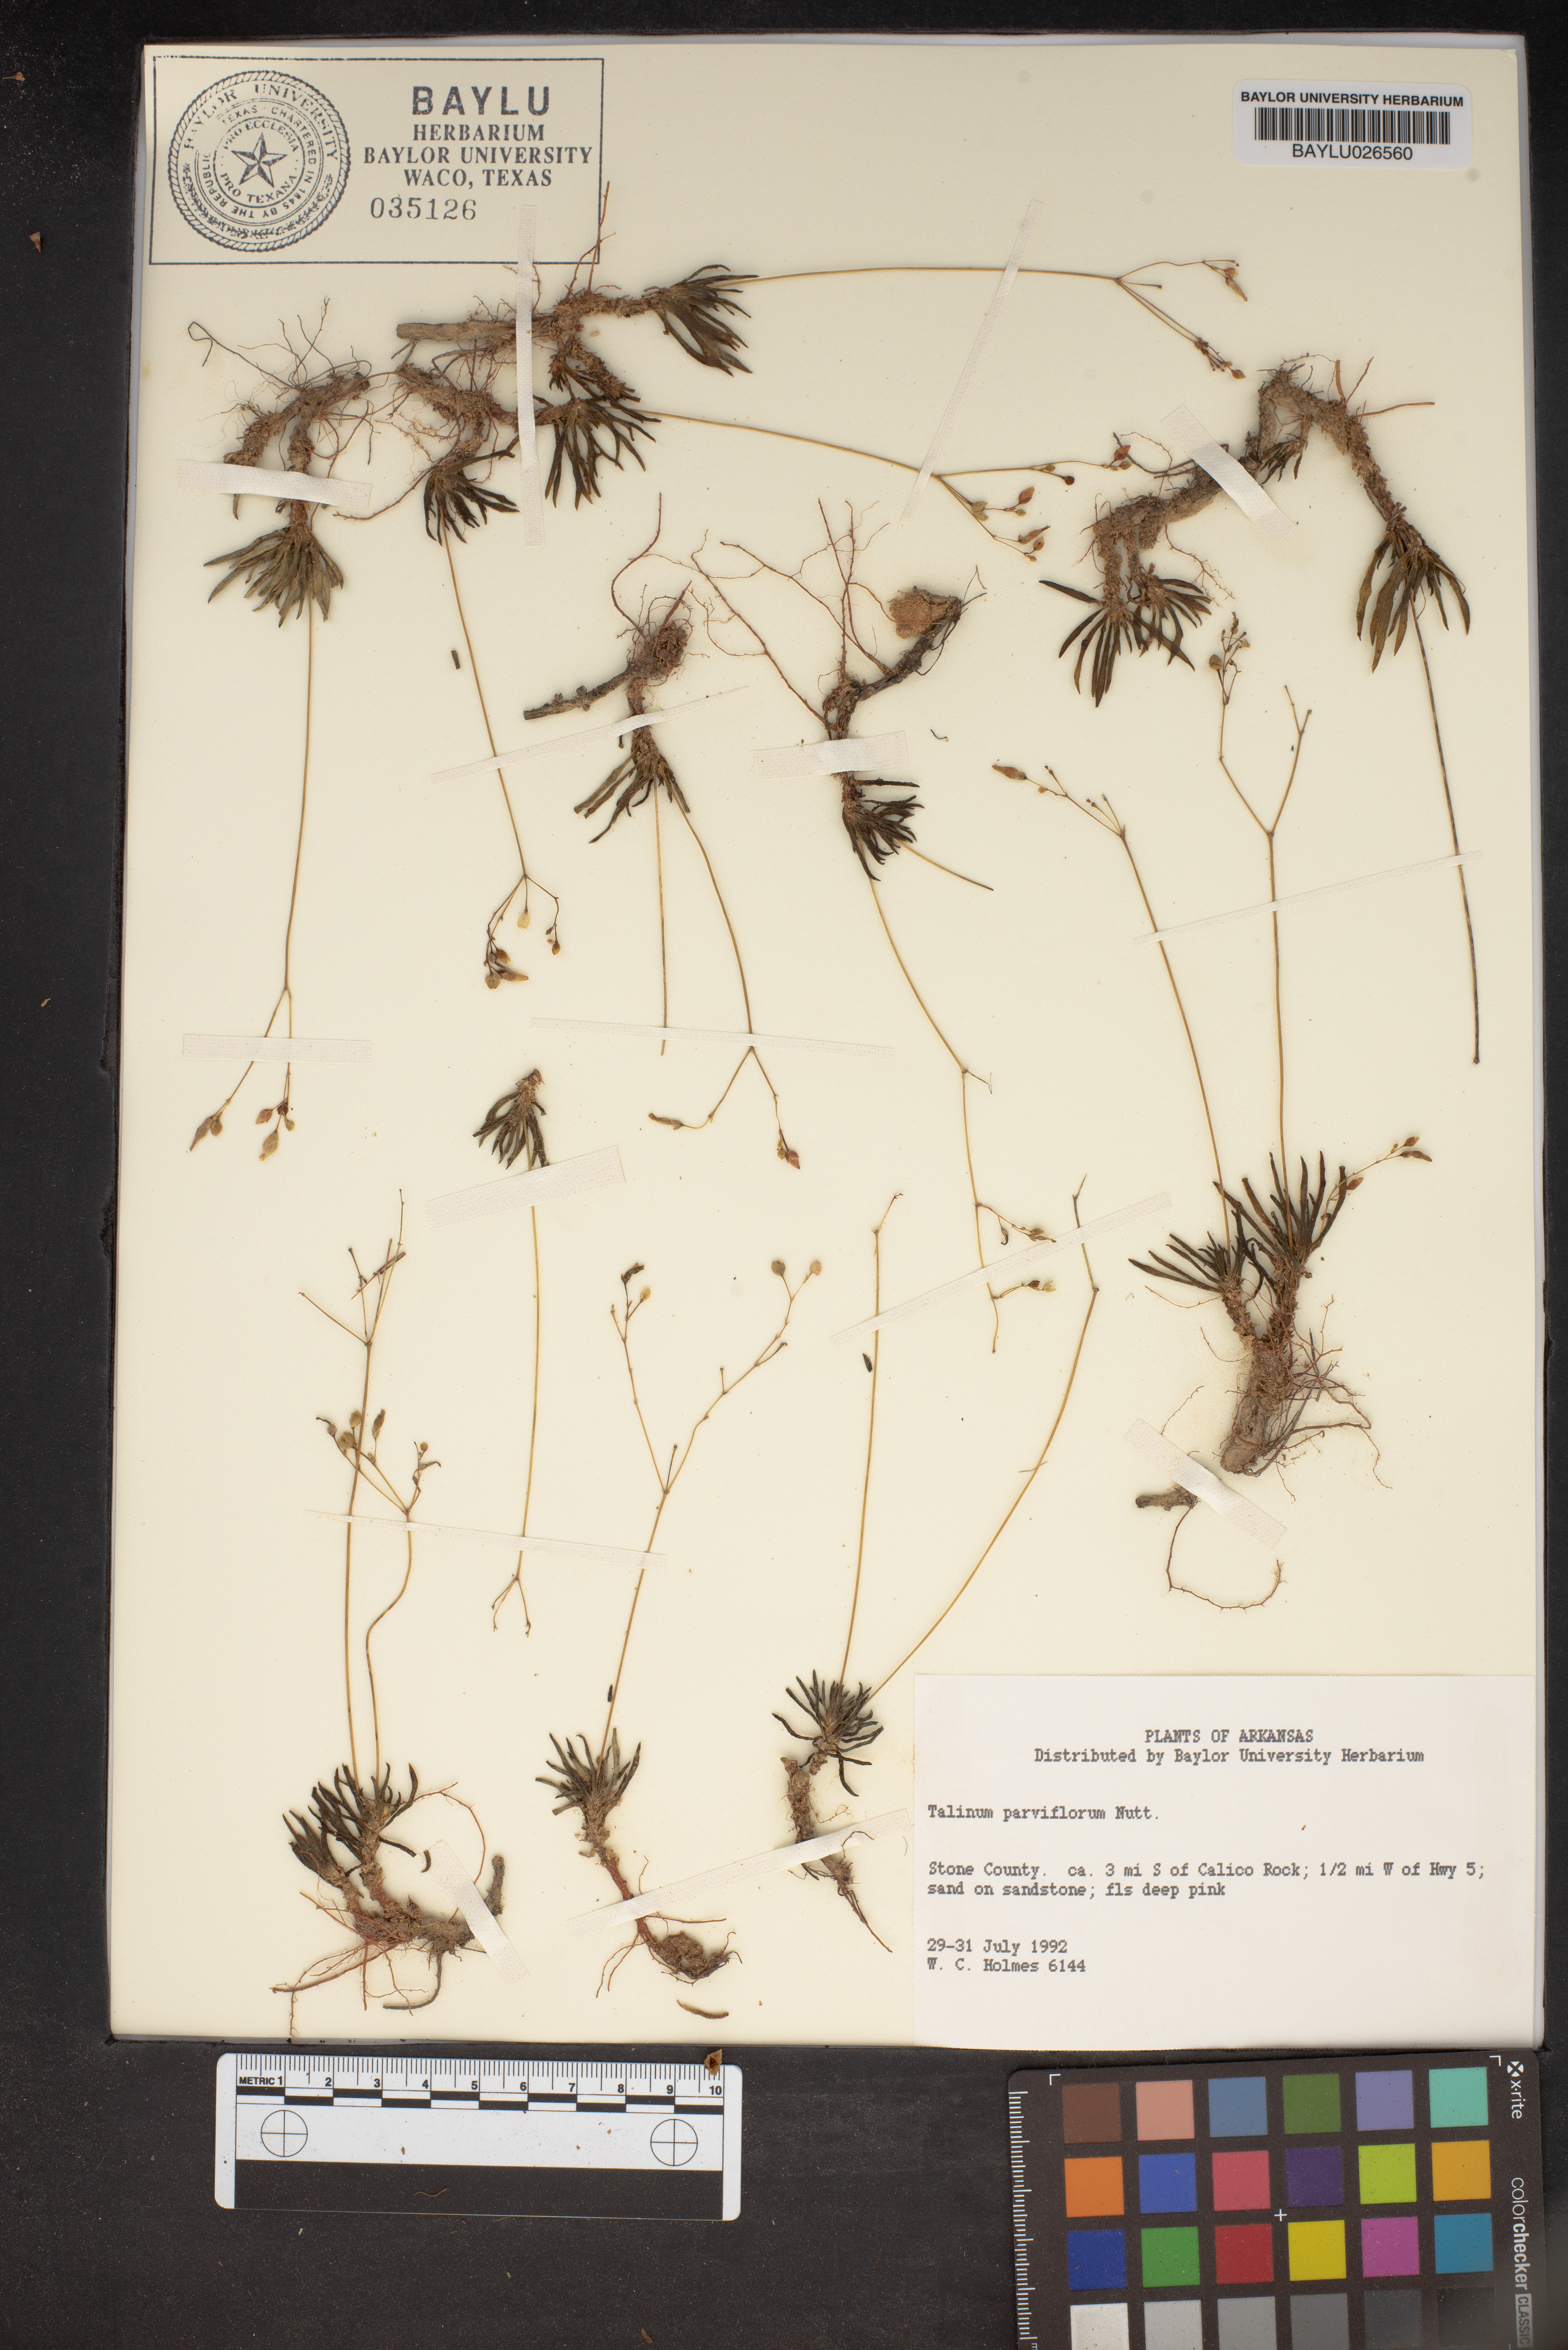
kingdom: Plantae
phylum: Tracheophyta
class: Magnoliopsida
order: Caryophyllales
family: Montiaceae
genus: Phemeranthus
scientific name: Phemeranthus parviflorus
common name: Sunbright
